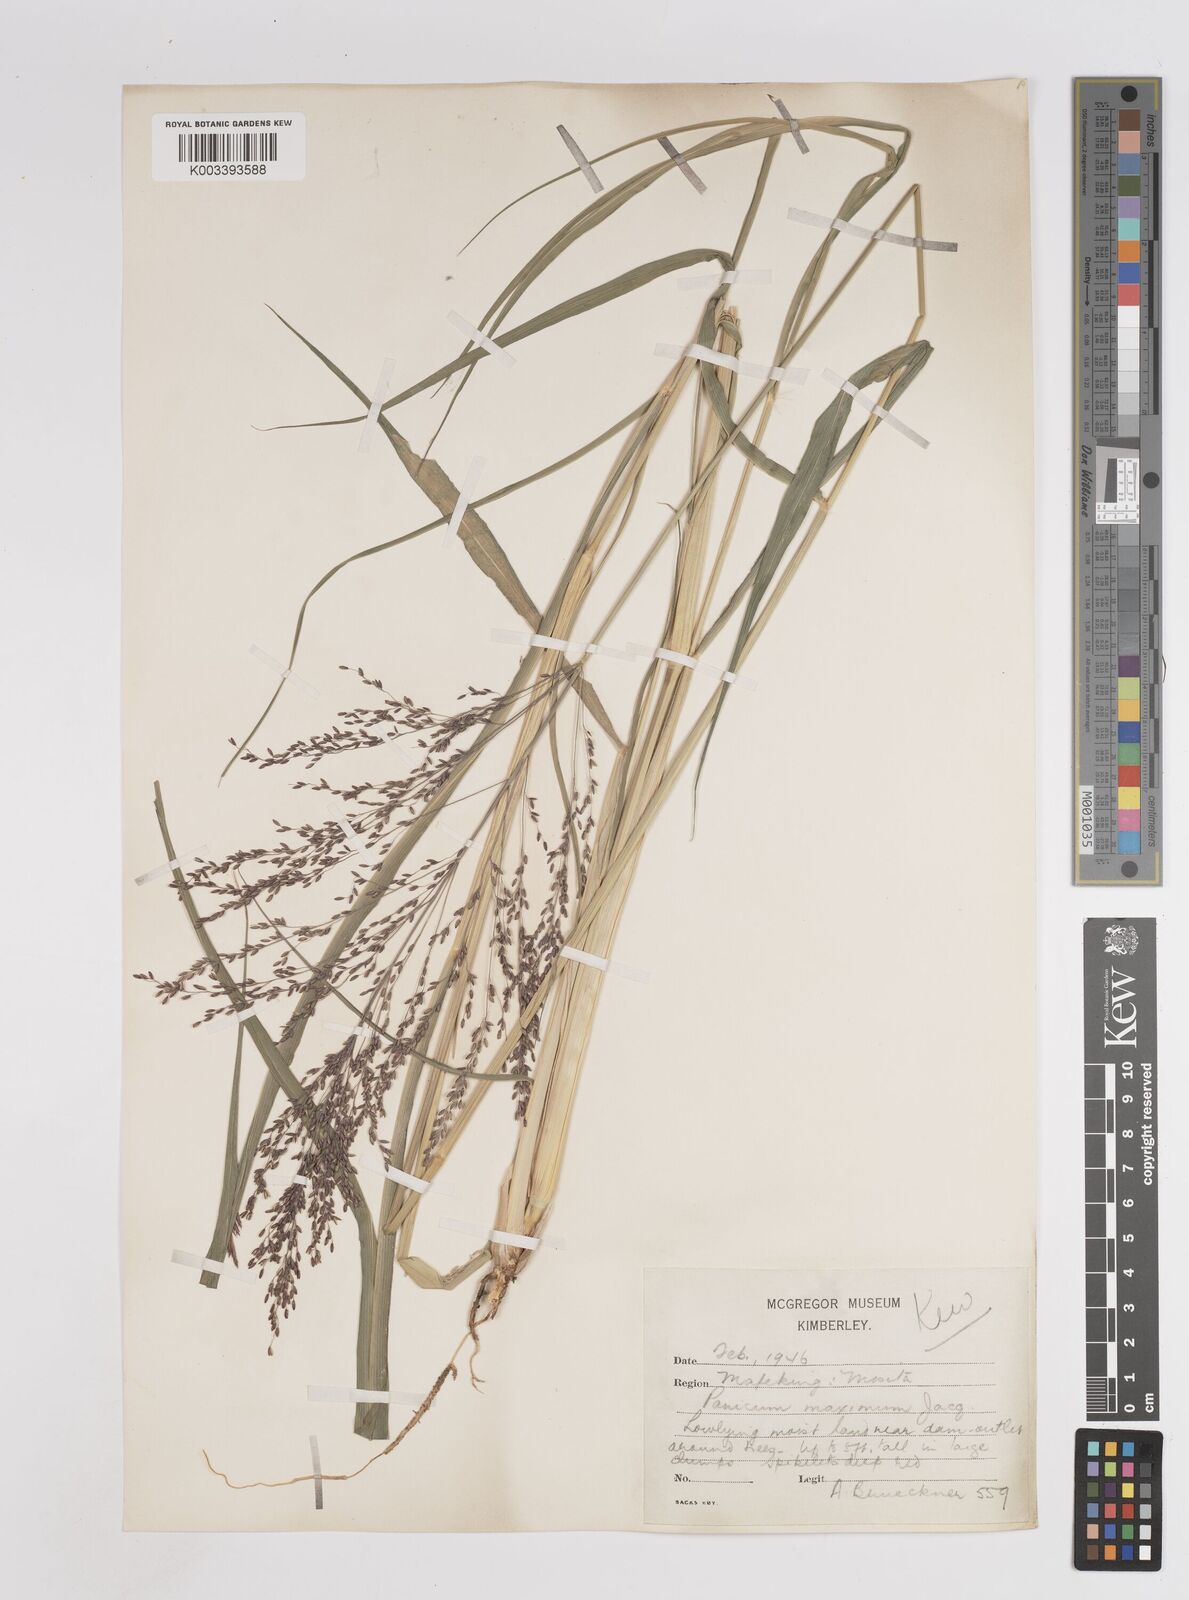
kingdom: Plantae
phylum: Tracheophyta
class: Liliopsida
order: Poales
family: Poaceae
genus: Megathyrsus
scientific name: Megathyrsus maximus
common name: Guineagrass
